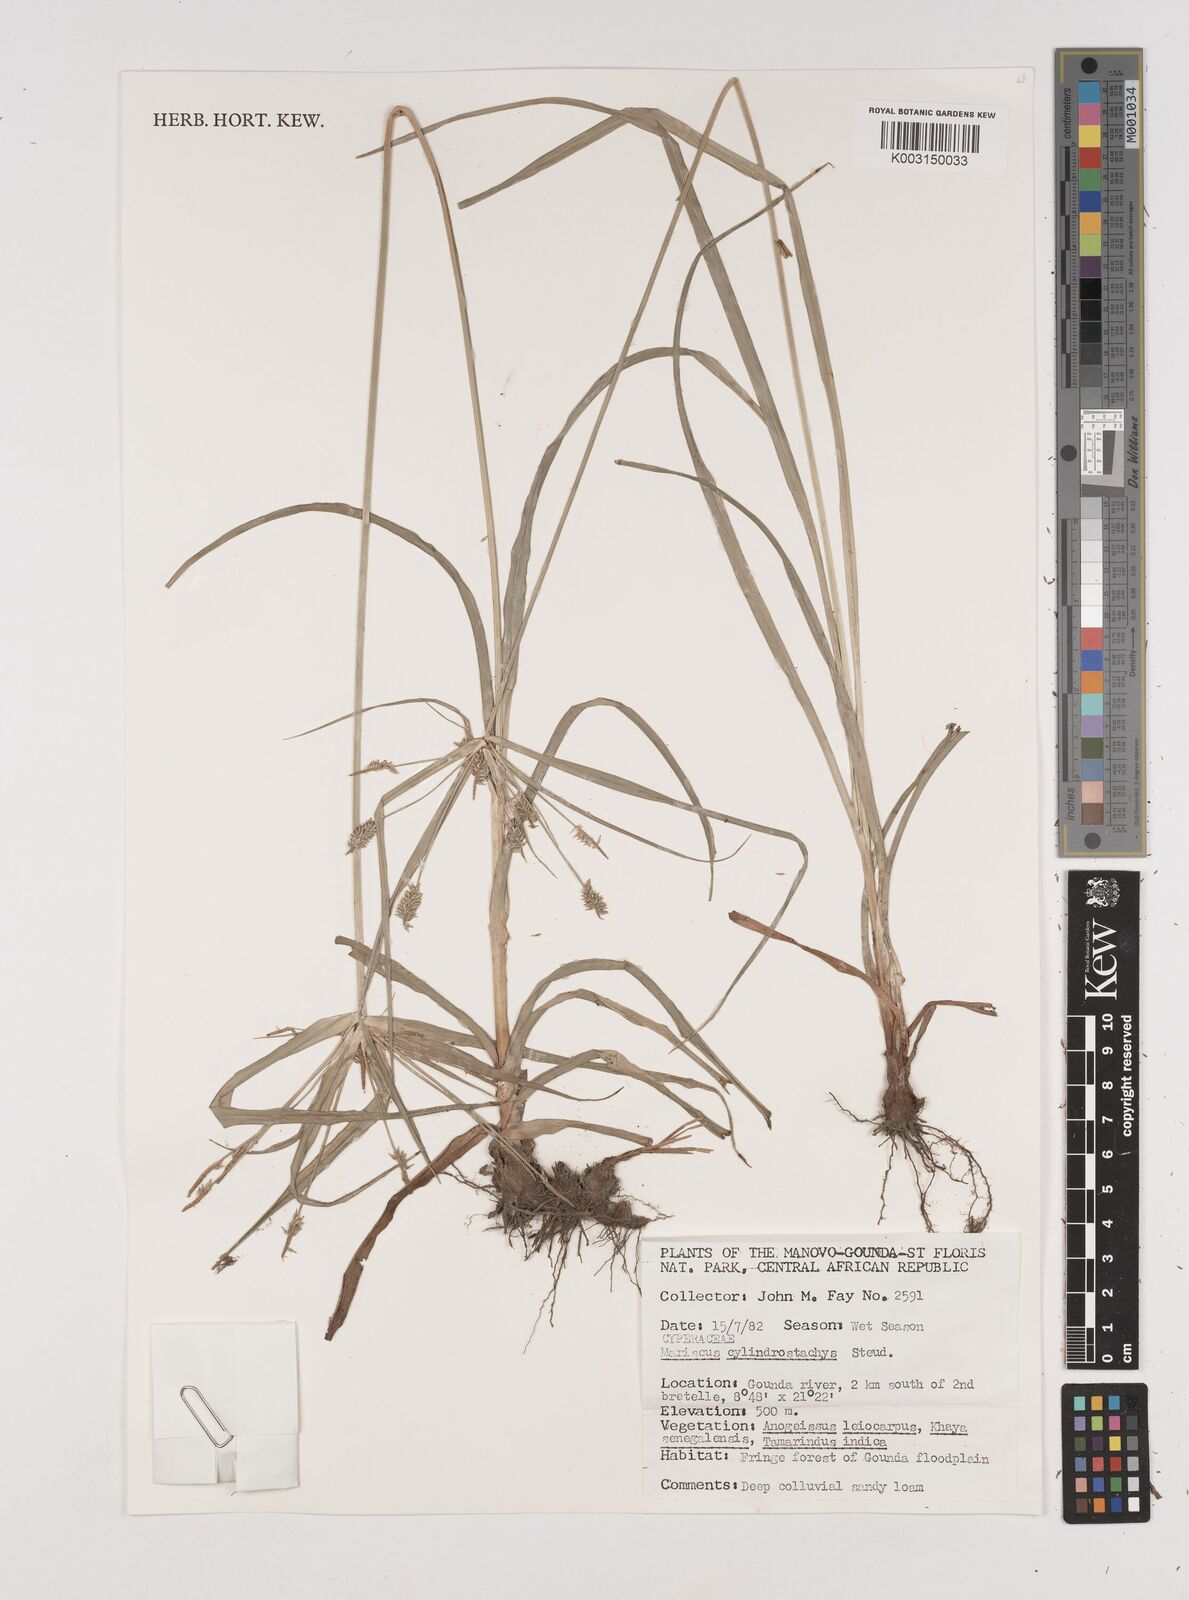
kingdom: Plantae
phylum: Tracheophyta
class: Liliopsida
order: Poales
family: Cyperaceae
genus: Cyperus
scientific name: Cyperus cyperoides
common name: Pacific island flat sedge
